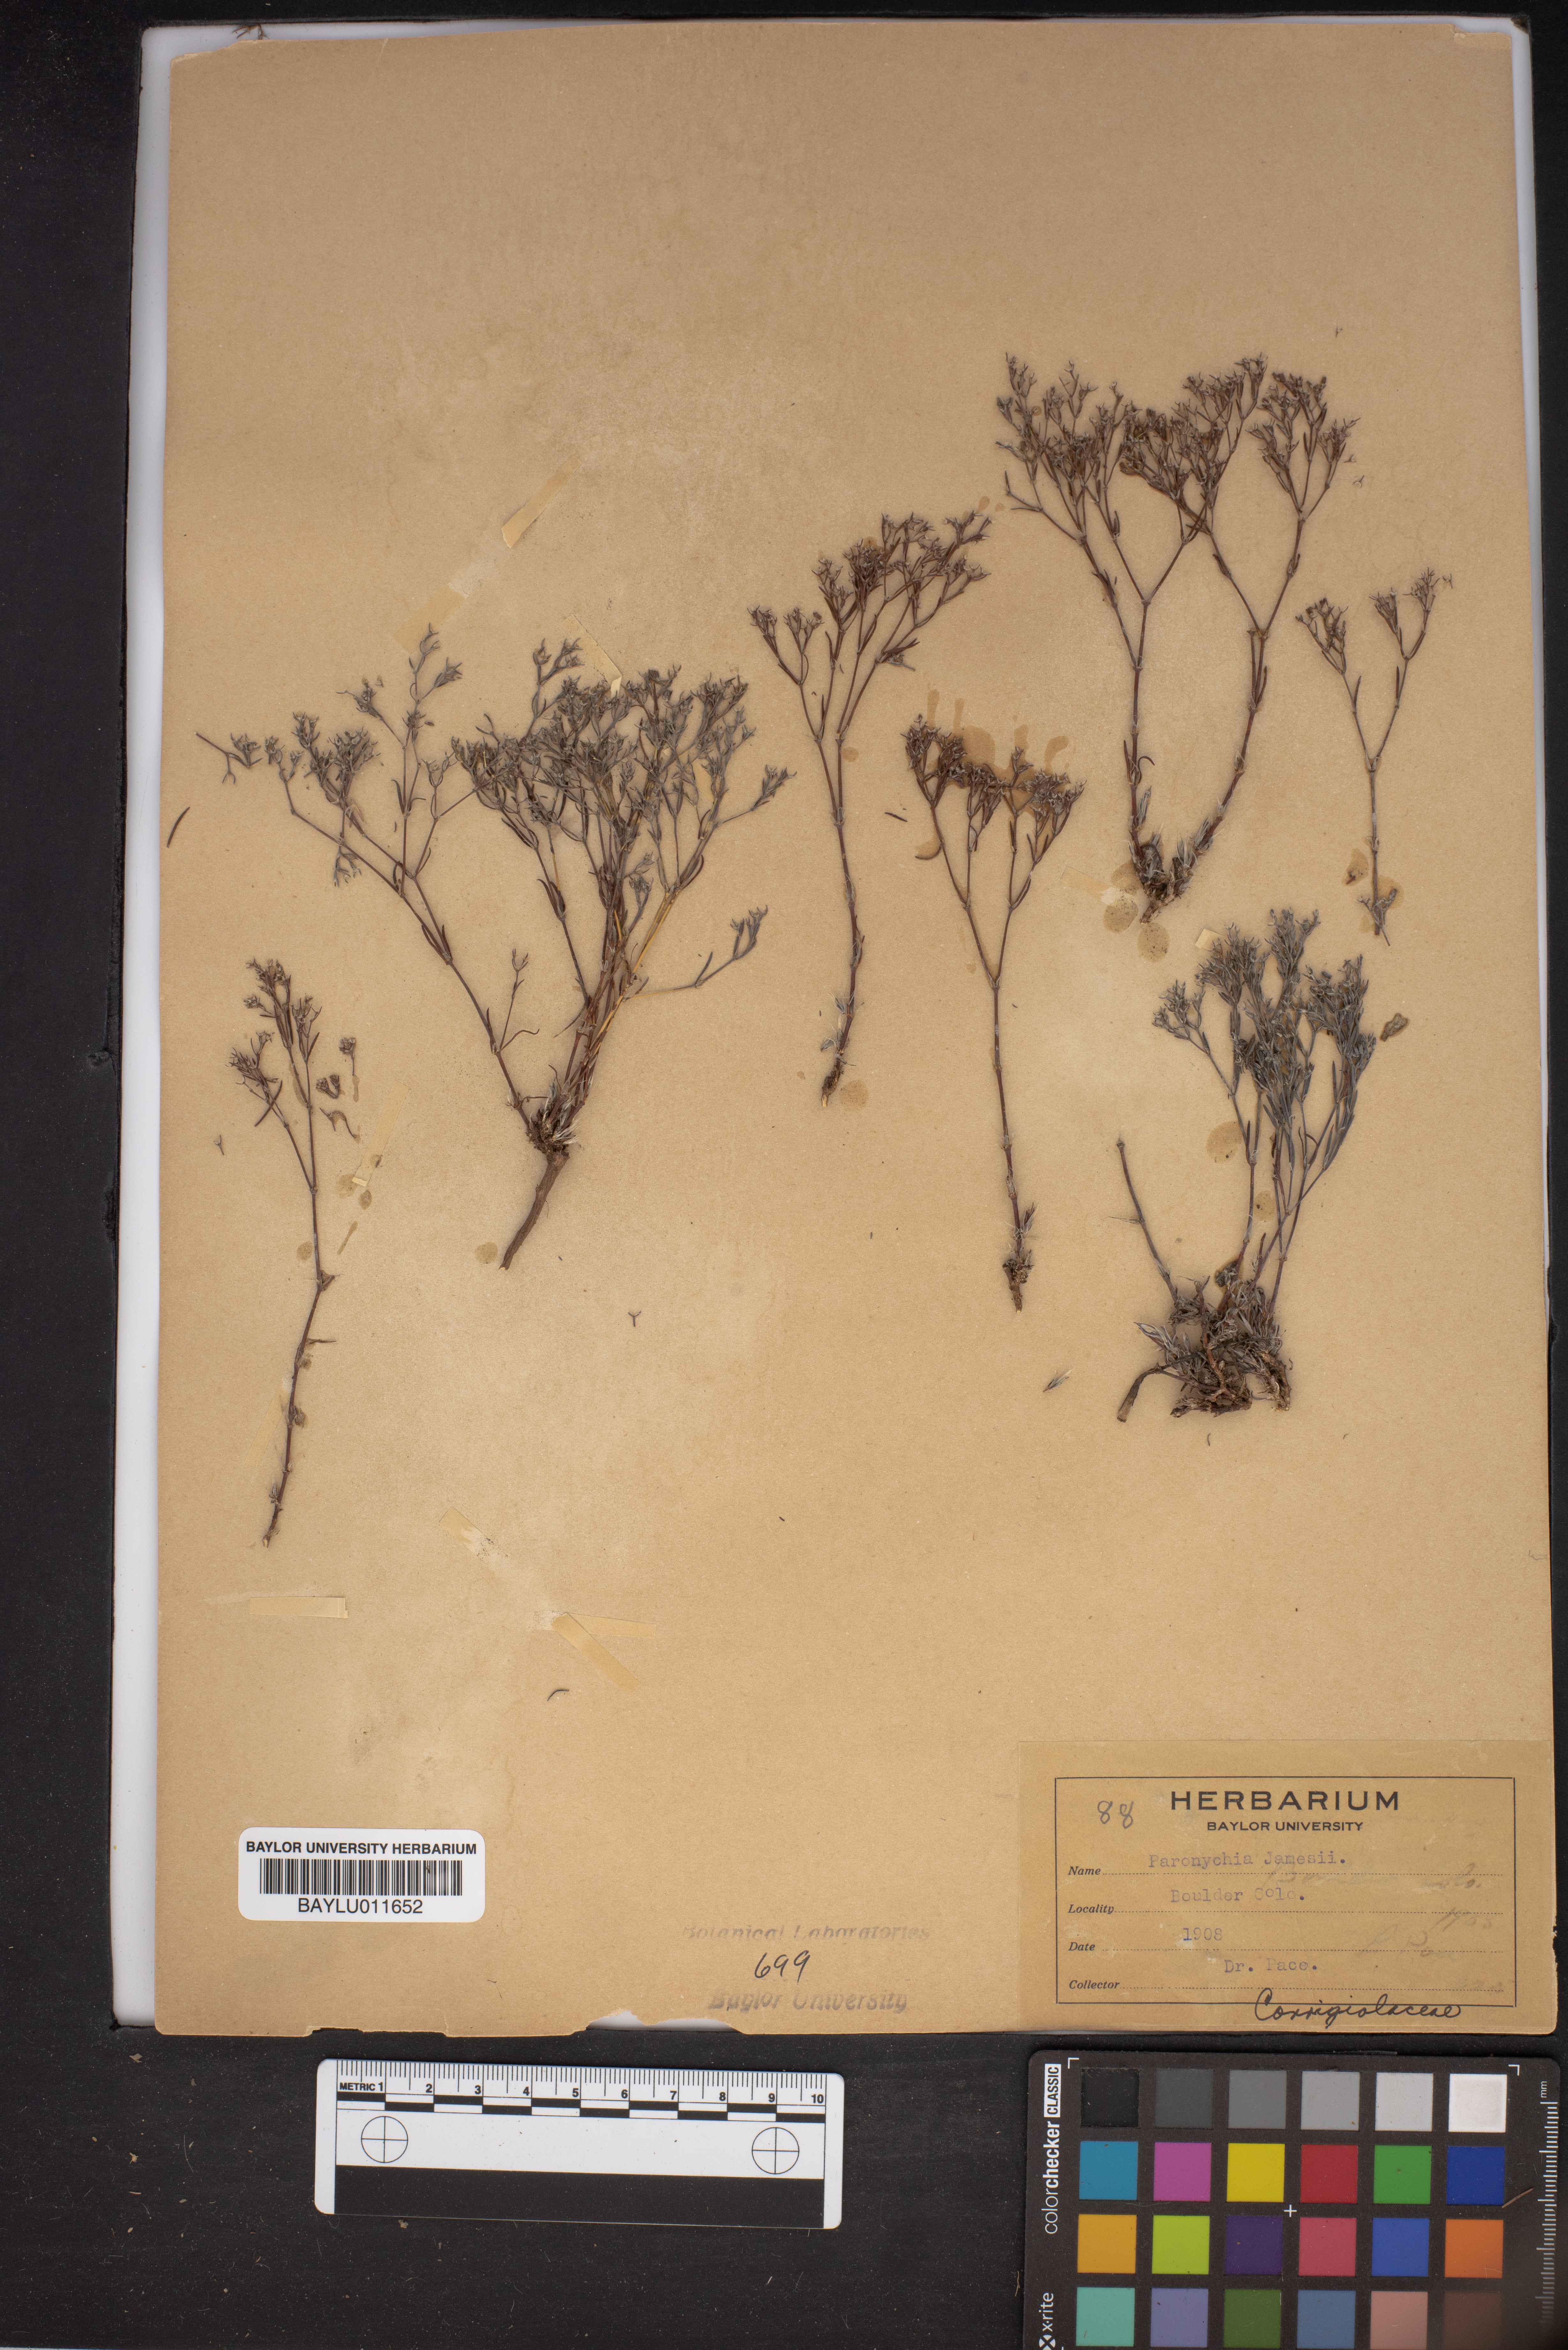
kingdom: Plantae
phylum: Tracheophyta
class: Magnoliopsida
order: Caryophyllales
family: Caryophyllaceae
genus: Paronychia
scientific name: Paronychia jamesii
